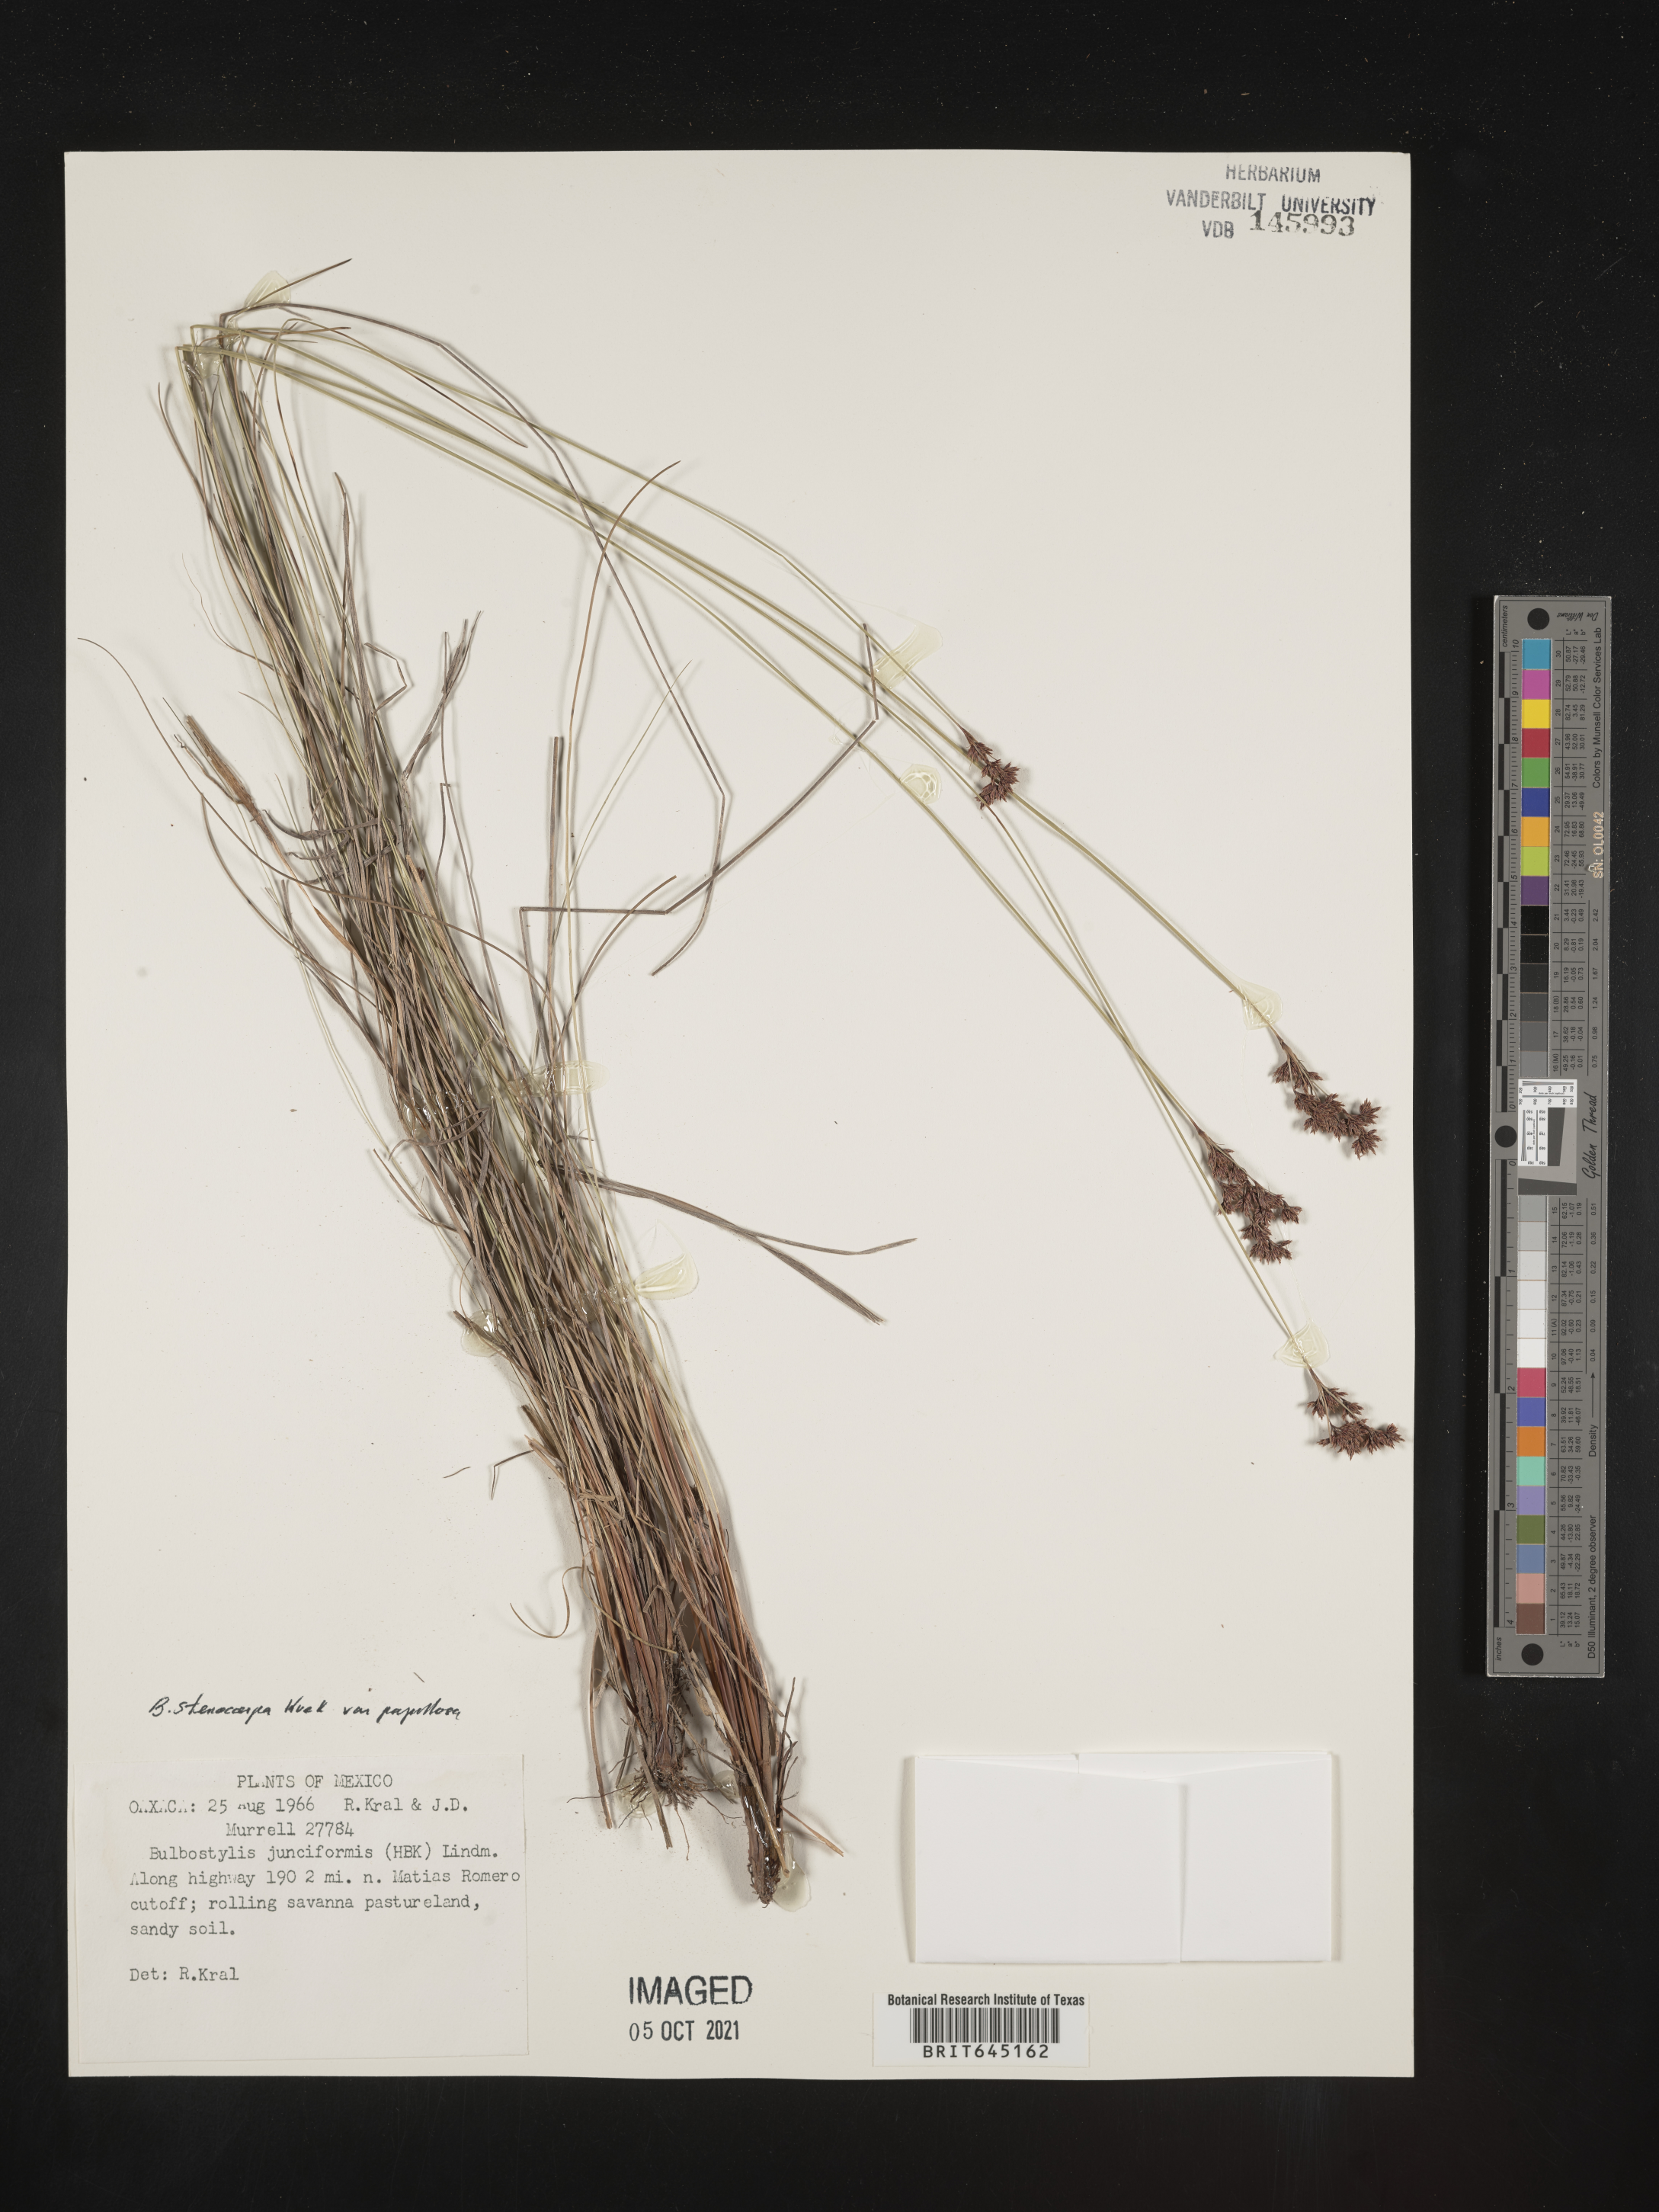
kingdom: Plantae
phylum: Tracheophyta
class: Liliopsida
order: Poales
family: Cyperaceae
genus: Bulbostylis
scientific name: Bulbostylis stenocarpa
